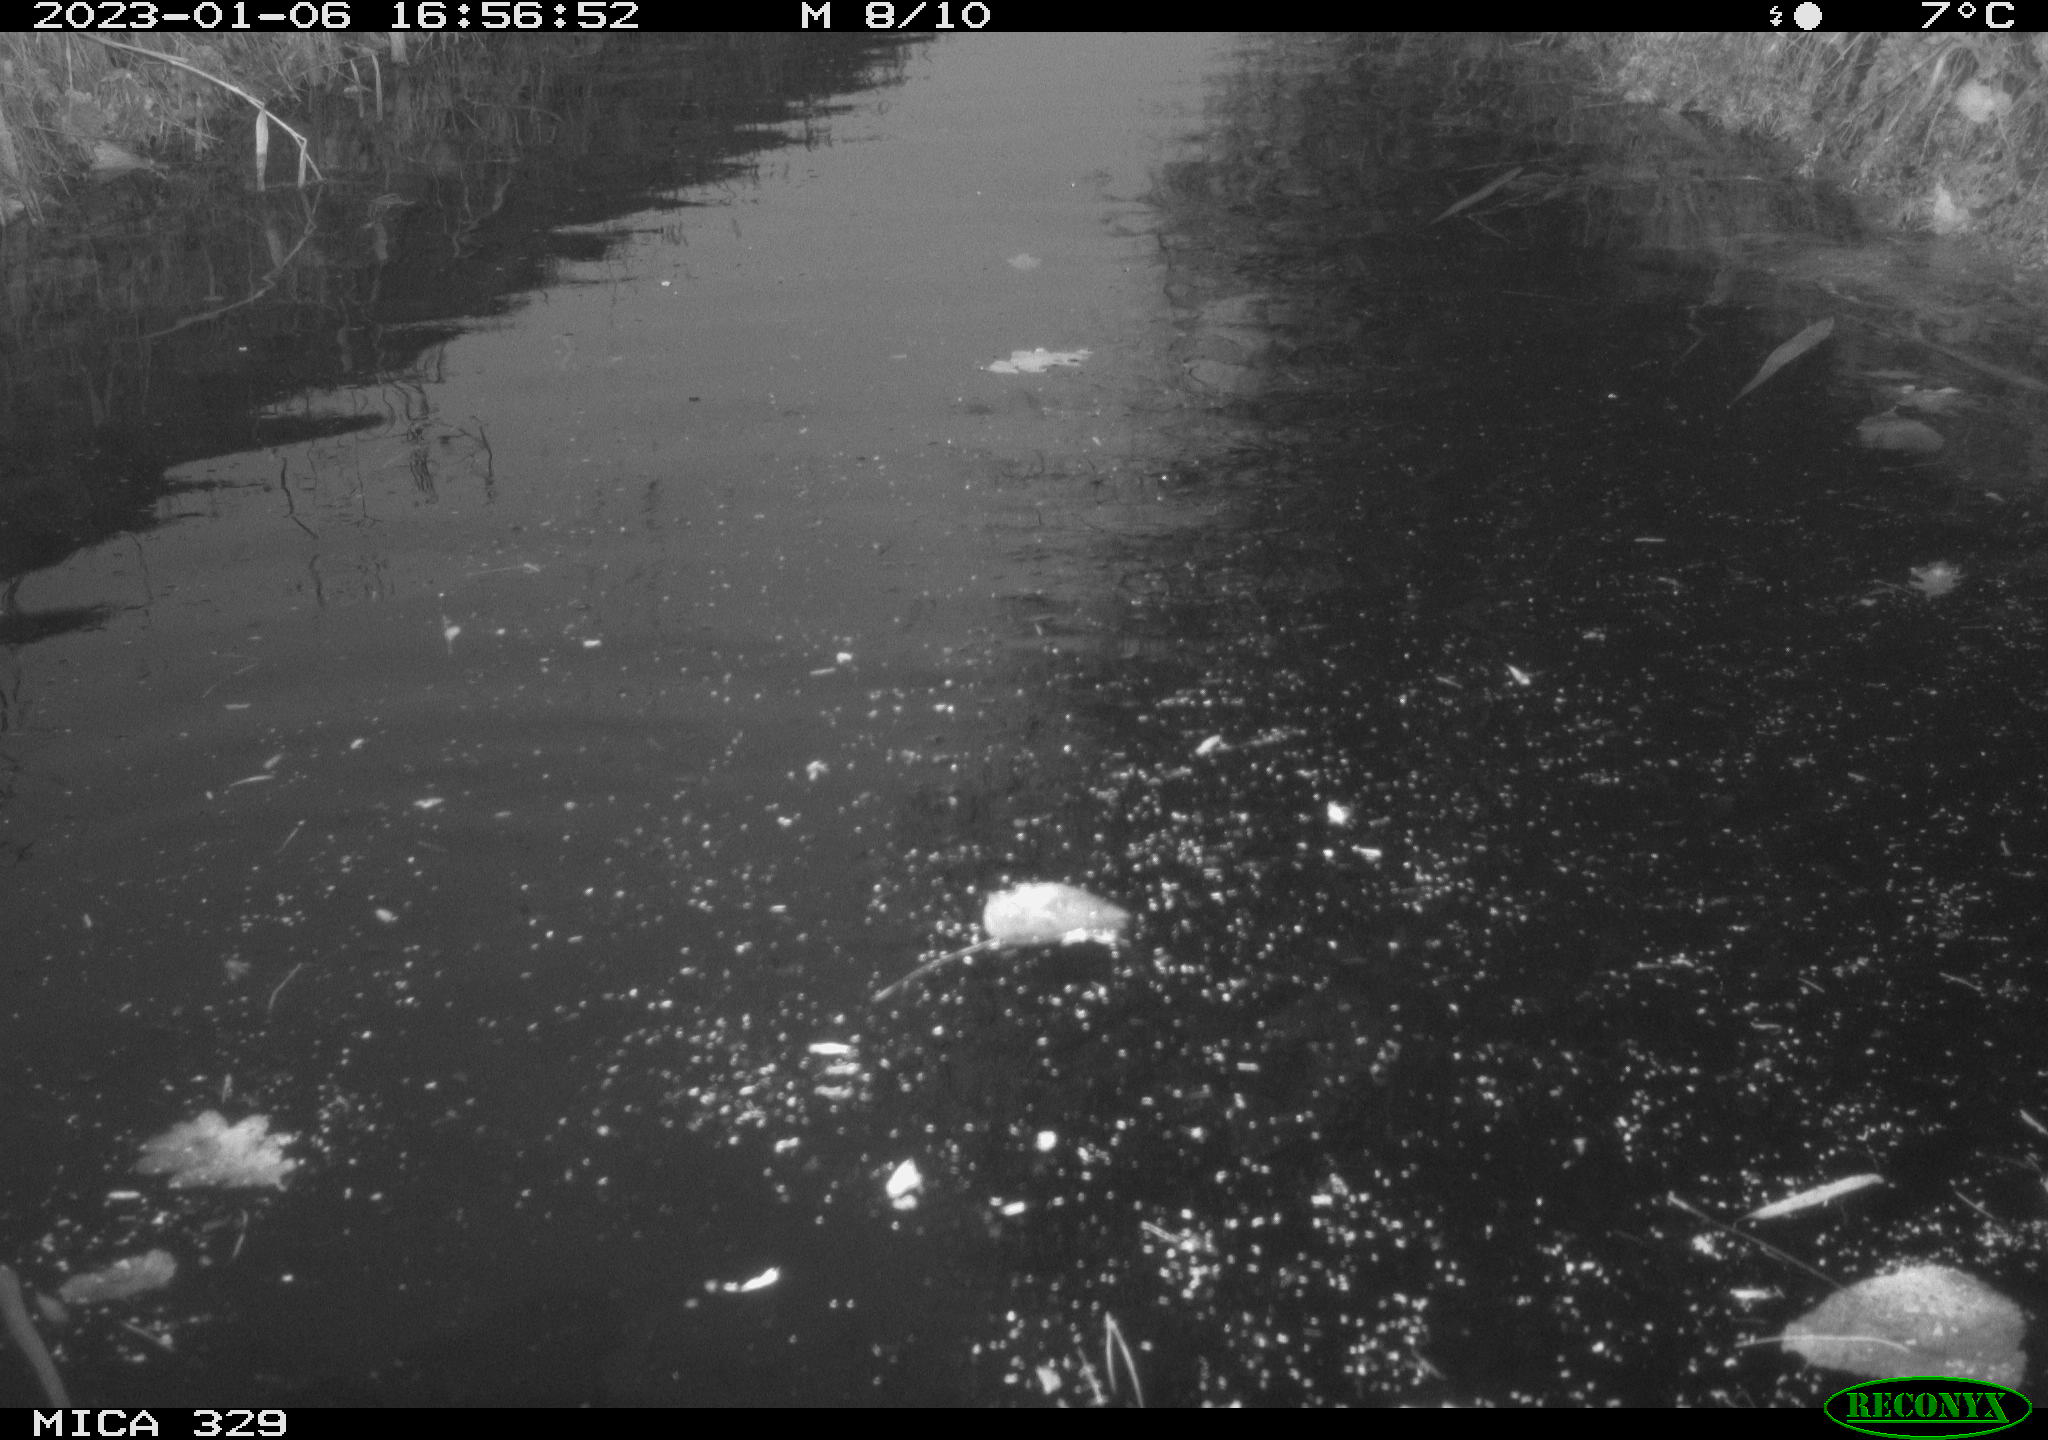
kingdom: Animalia
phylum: Chordata
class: Mammalia
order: Rodentia
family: Cricetidae
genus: Ondatra
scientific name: Ondatra zibethicus
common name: Muskrat
